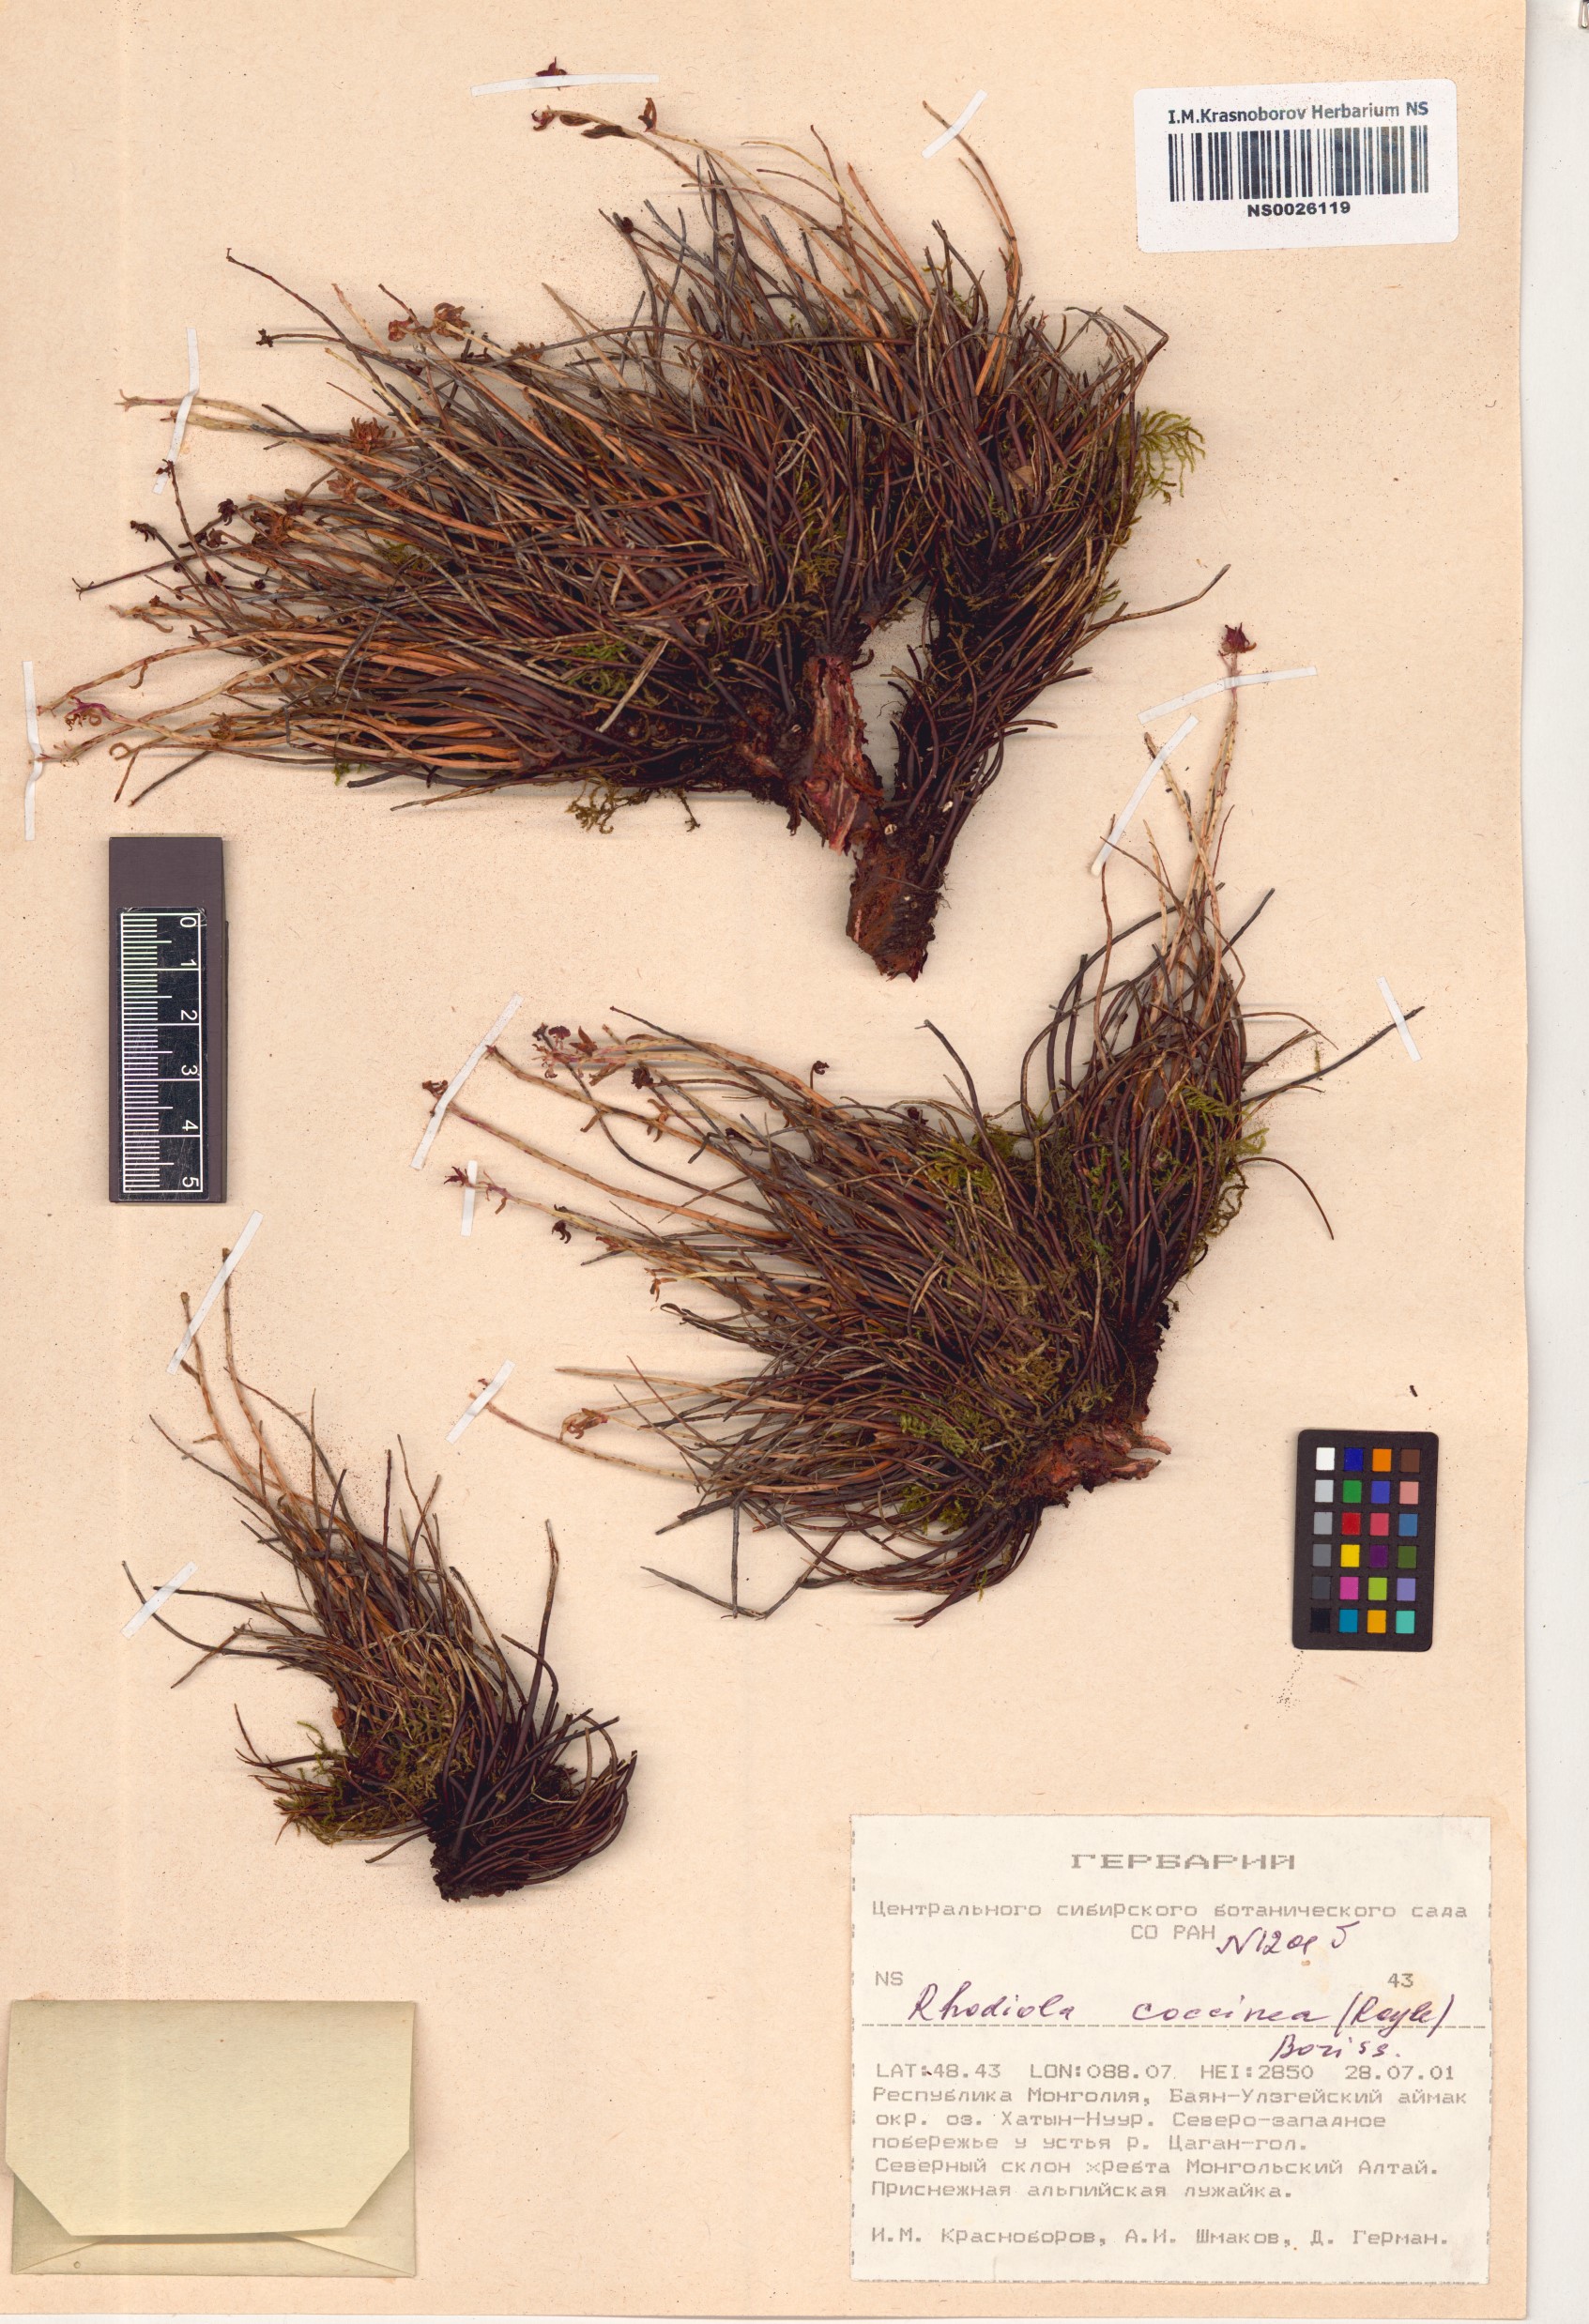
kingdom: Plantae
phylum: Tracheophyta
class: Magnoliopsida
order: Saxifragales
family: Crassulaceae
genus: Rhodiola
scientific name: Rhodiola coccinea
